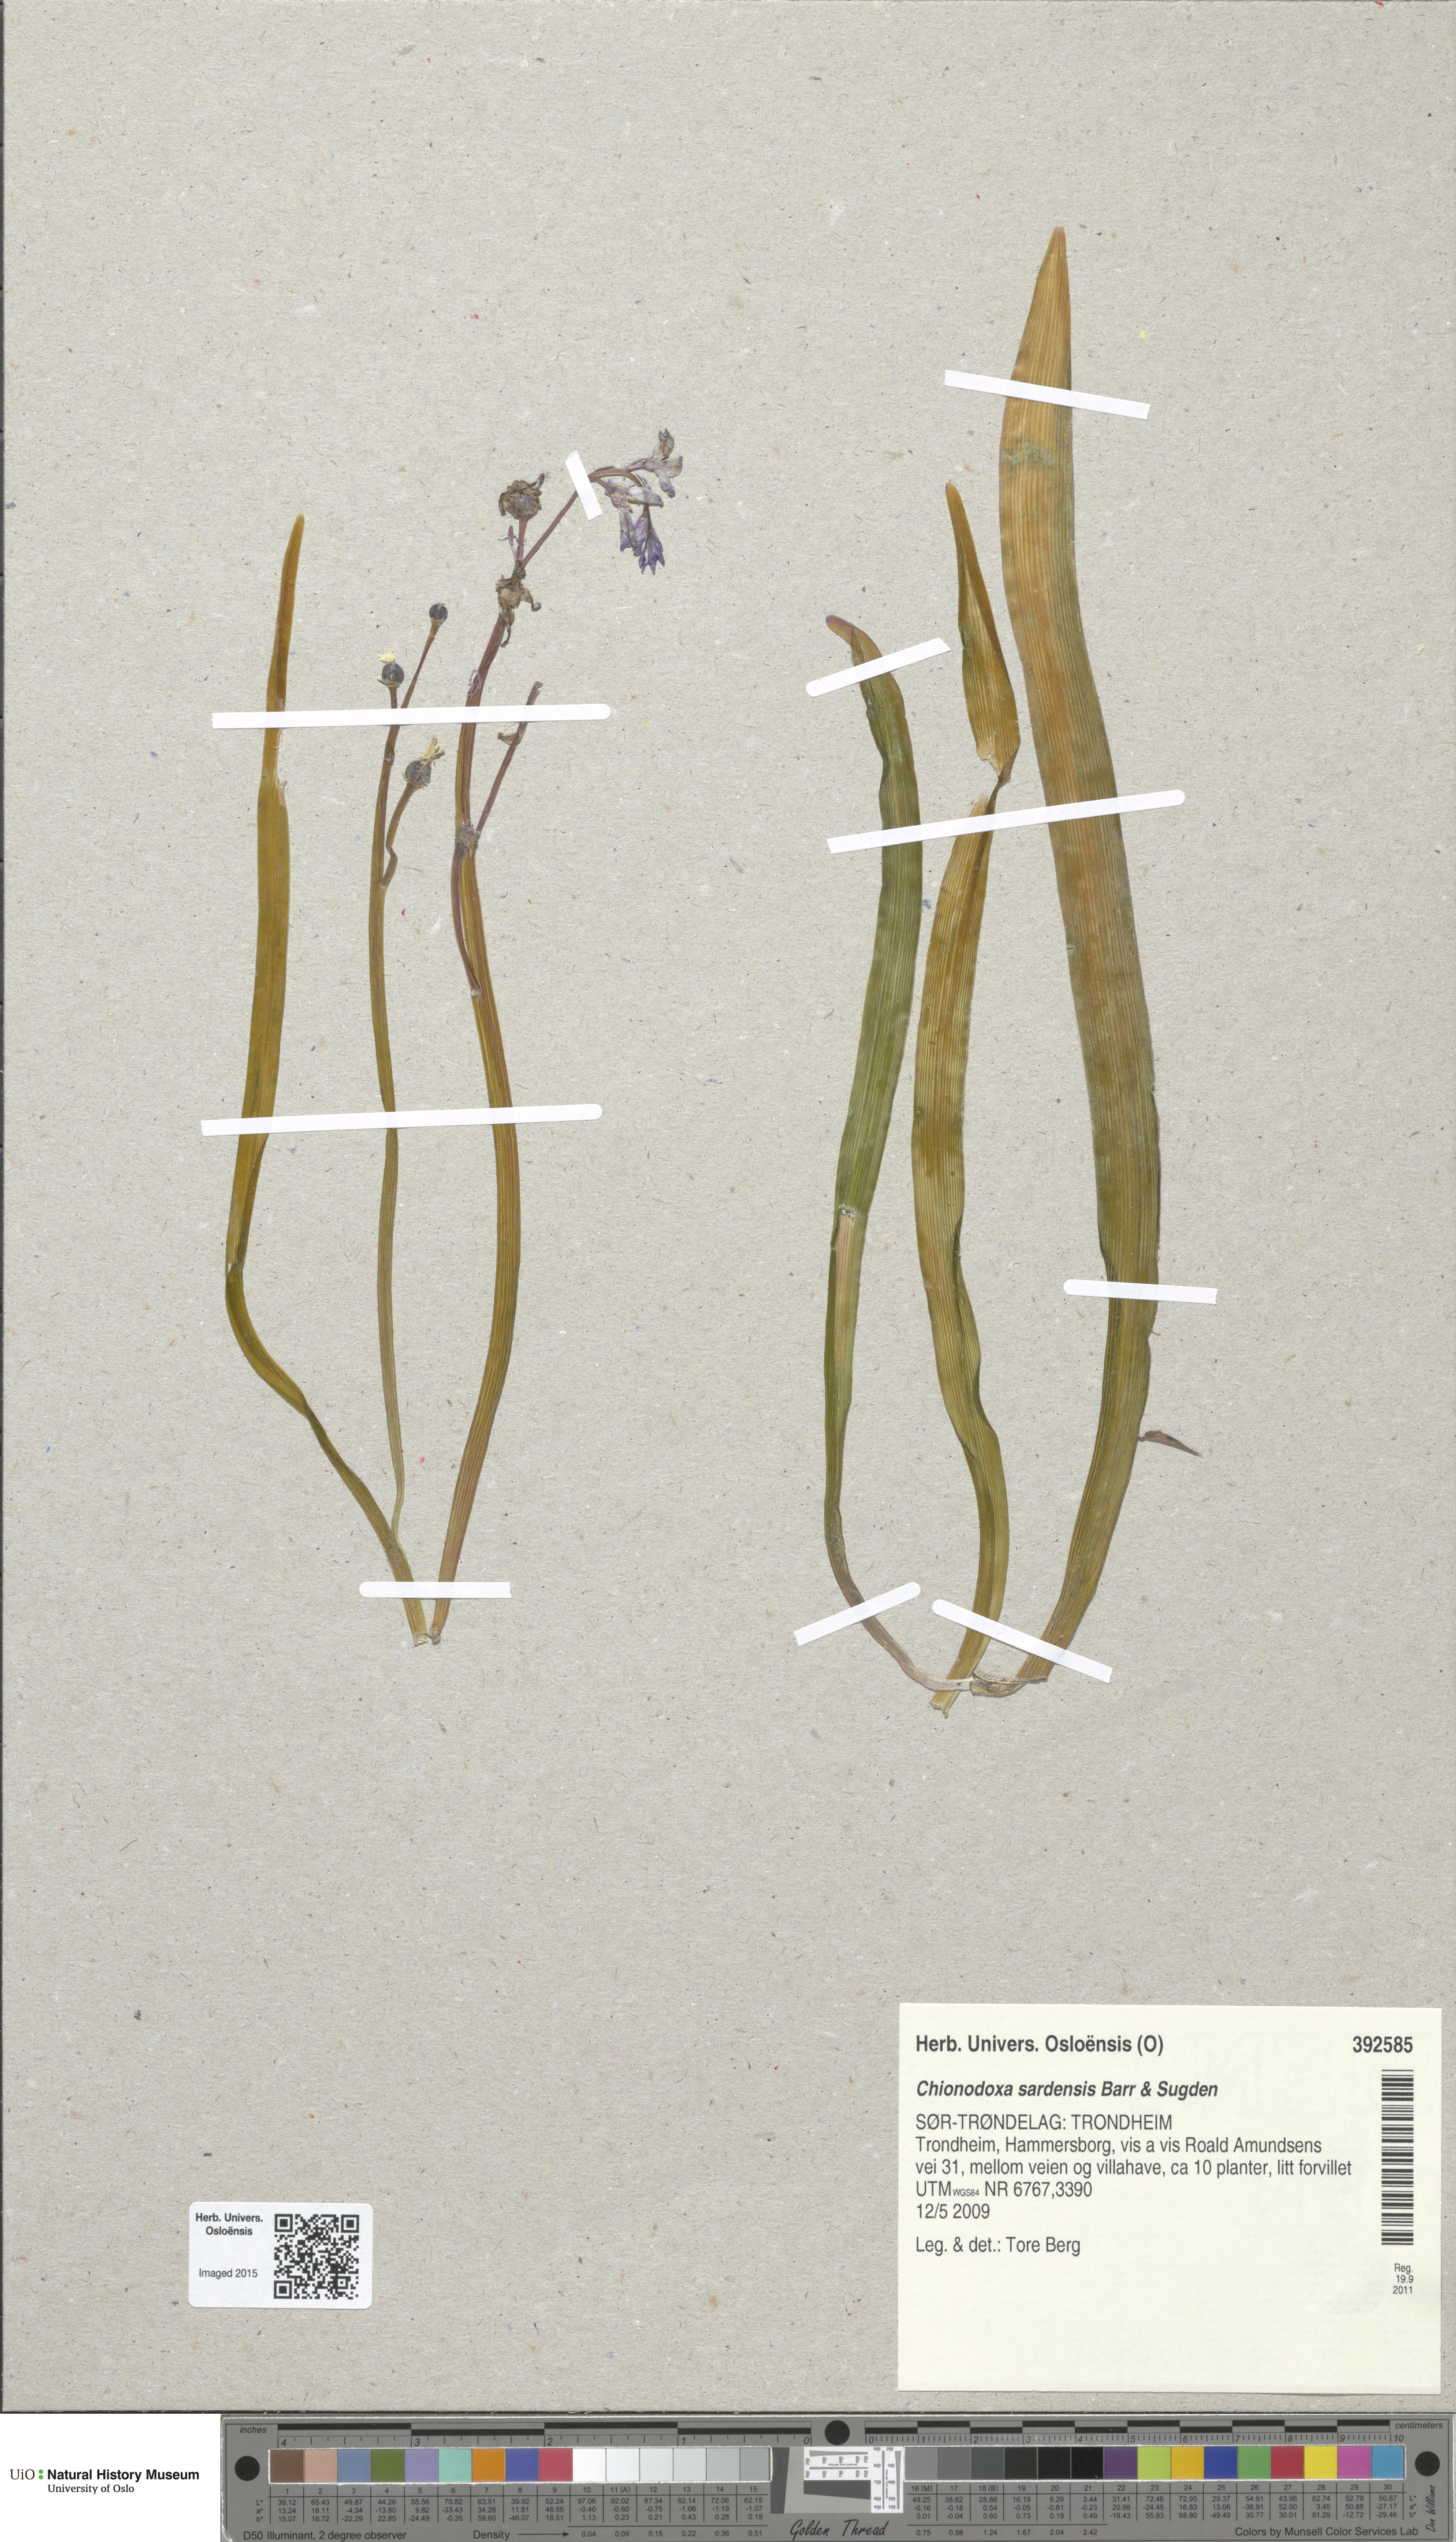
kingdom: Plantae
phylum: Tracheophyta
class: Liliopsida
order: Asparagales
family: Asparagaceae
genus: Scilla
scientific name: Scilla sardensis
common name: Lesser glory-of-the-snow
